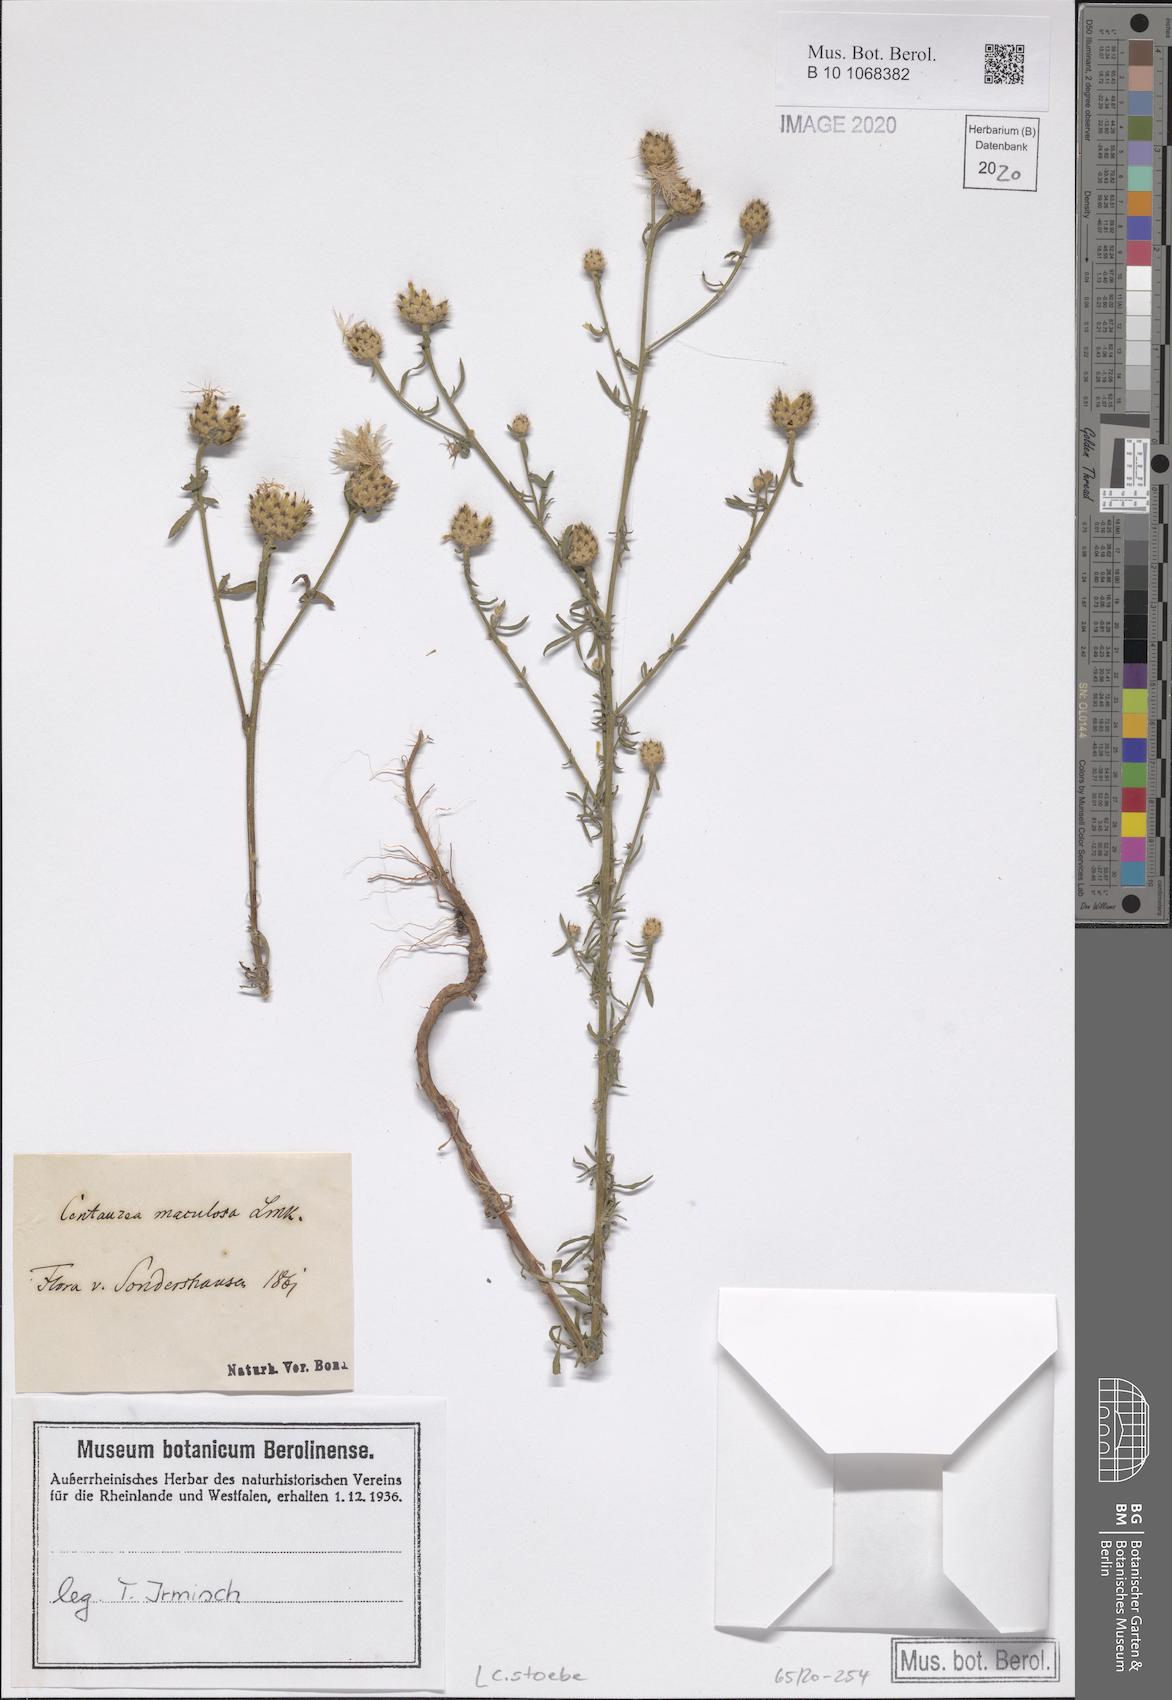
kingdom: Plantae
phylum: Tracheophyta
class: Magnoliopsida
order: Asterales
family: Asteraceae
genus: Centaurea
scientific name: Centaurea stoebe
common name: Spotted knapweed
